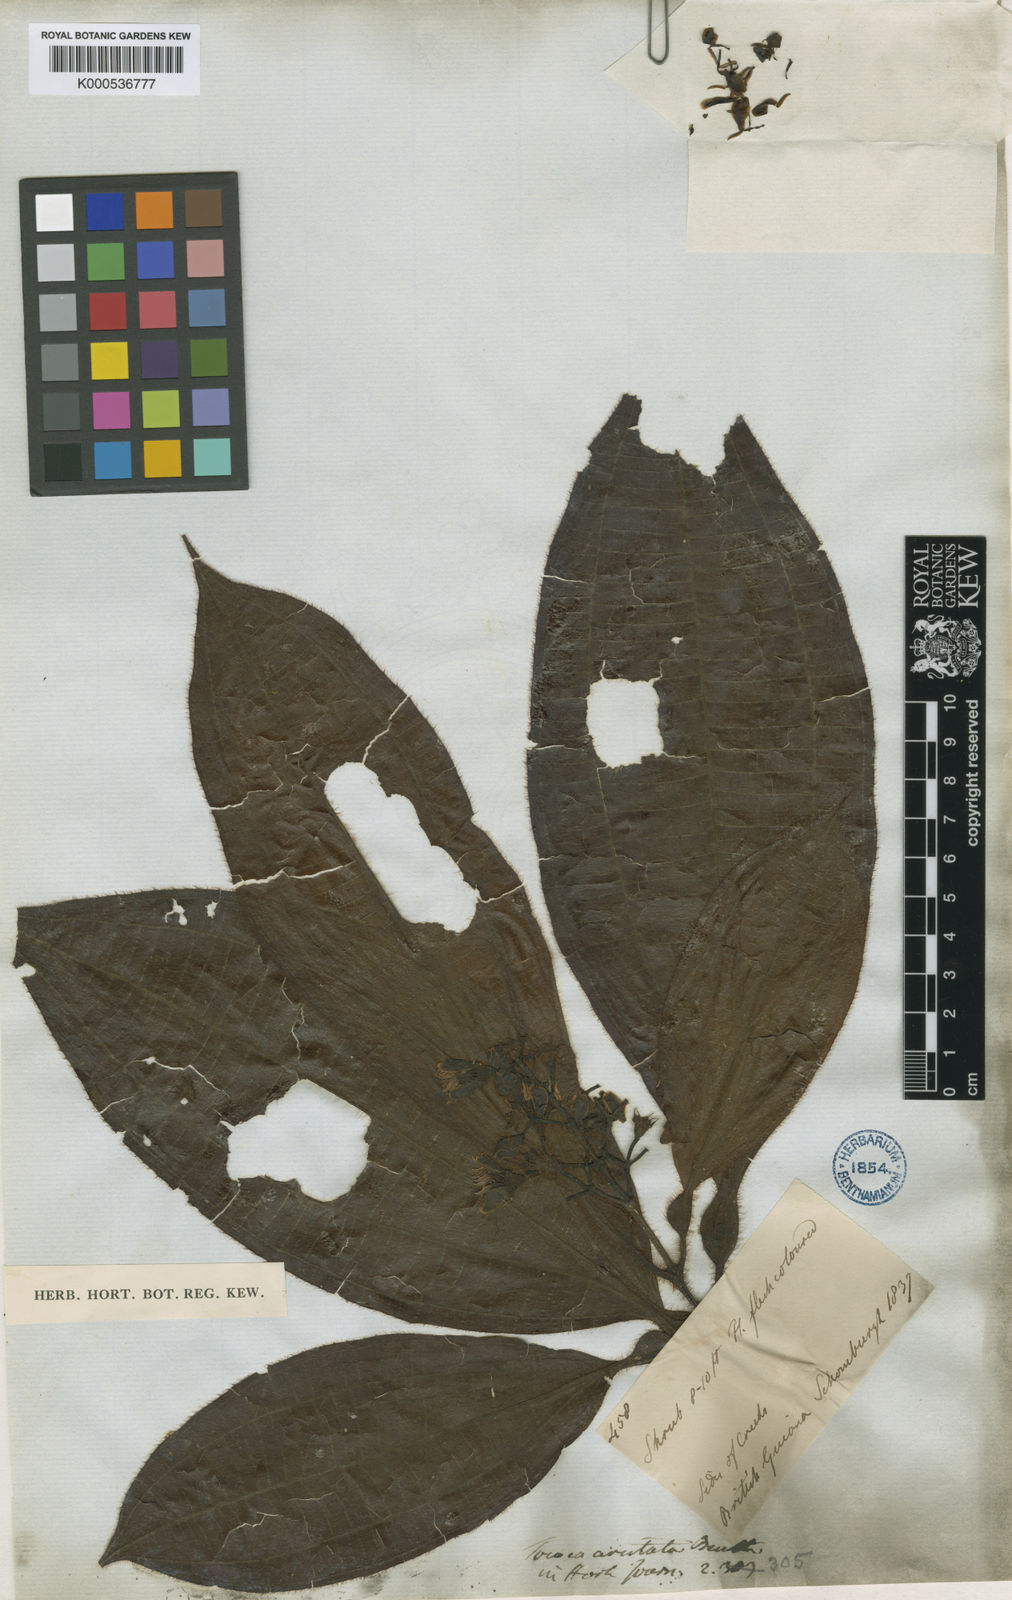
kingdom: Plantae
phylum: Tracheophyta
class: Magnoliopsida
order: Myrtales
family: Melastomataceae
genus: Miconia
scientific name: Miconia tocoaristata
